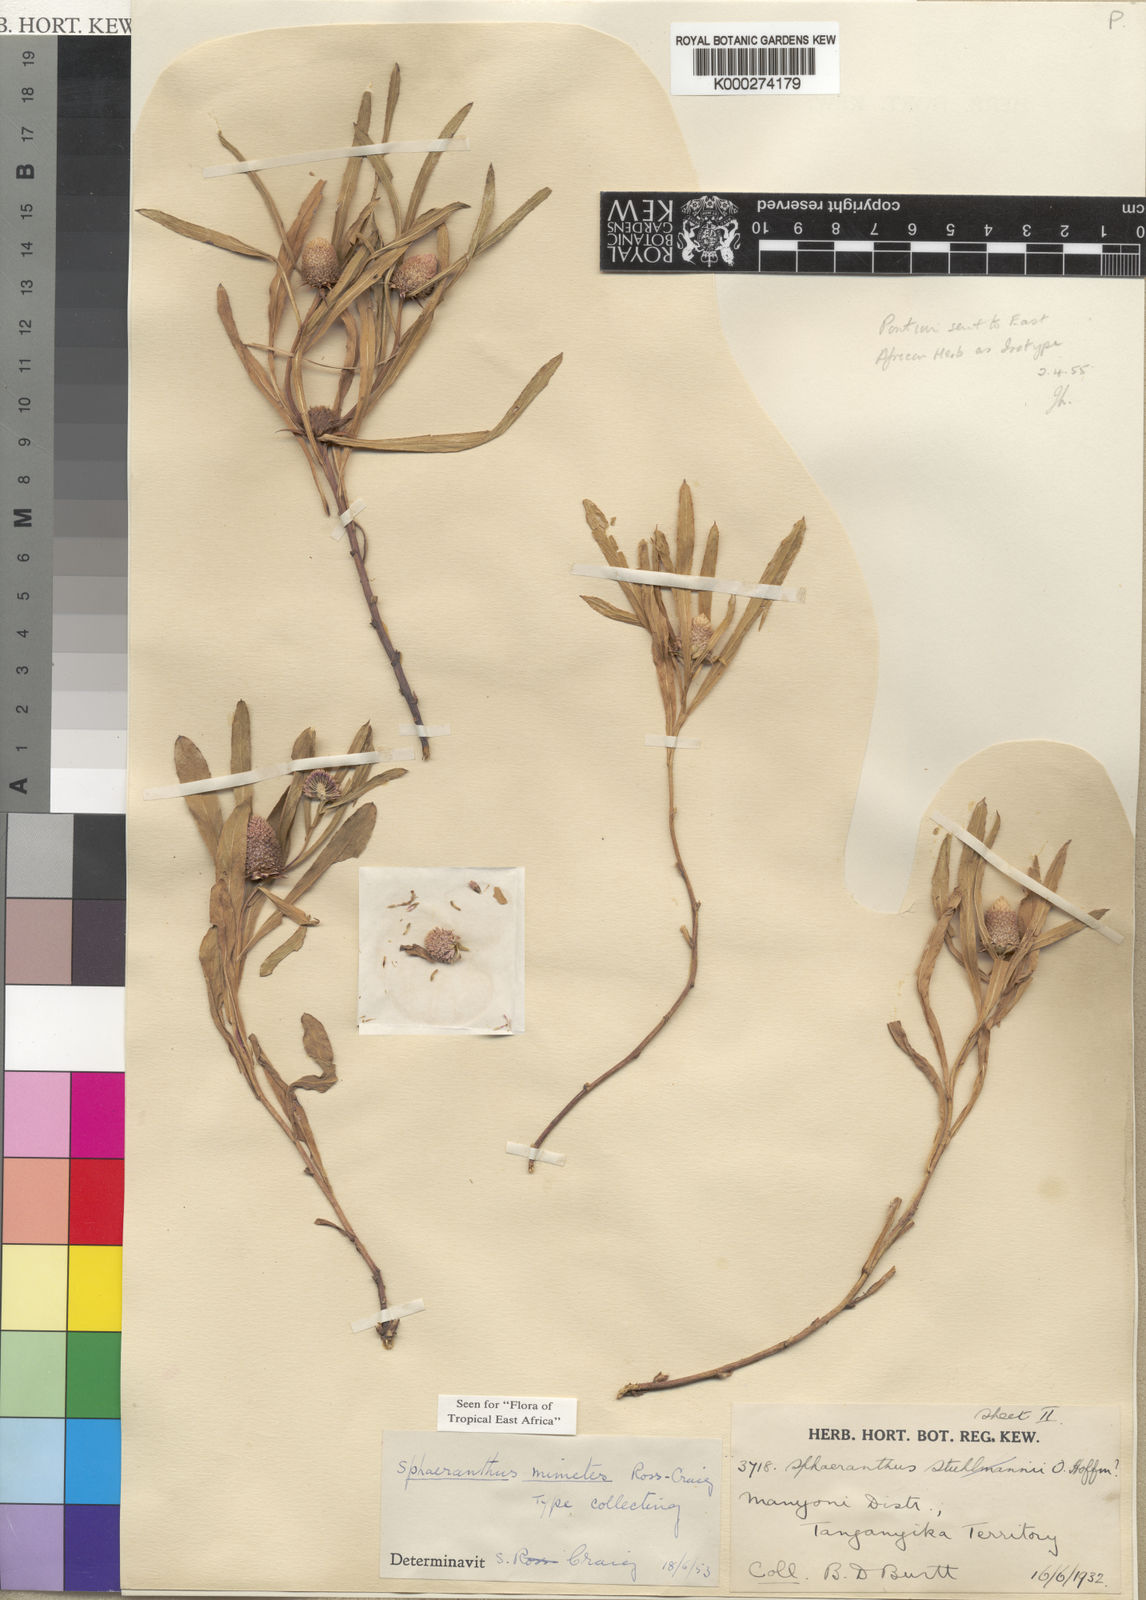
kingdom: Plantae
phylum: Tracheophyta
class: Magnoliopsida
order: Asterales
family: Asteraceae
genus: Sphaeranthus
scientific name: Sphaeranthus mimetes
